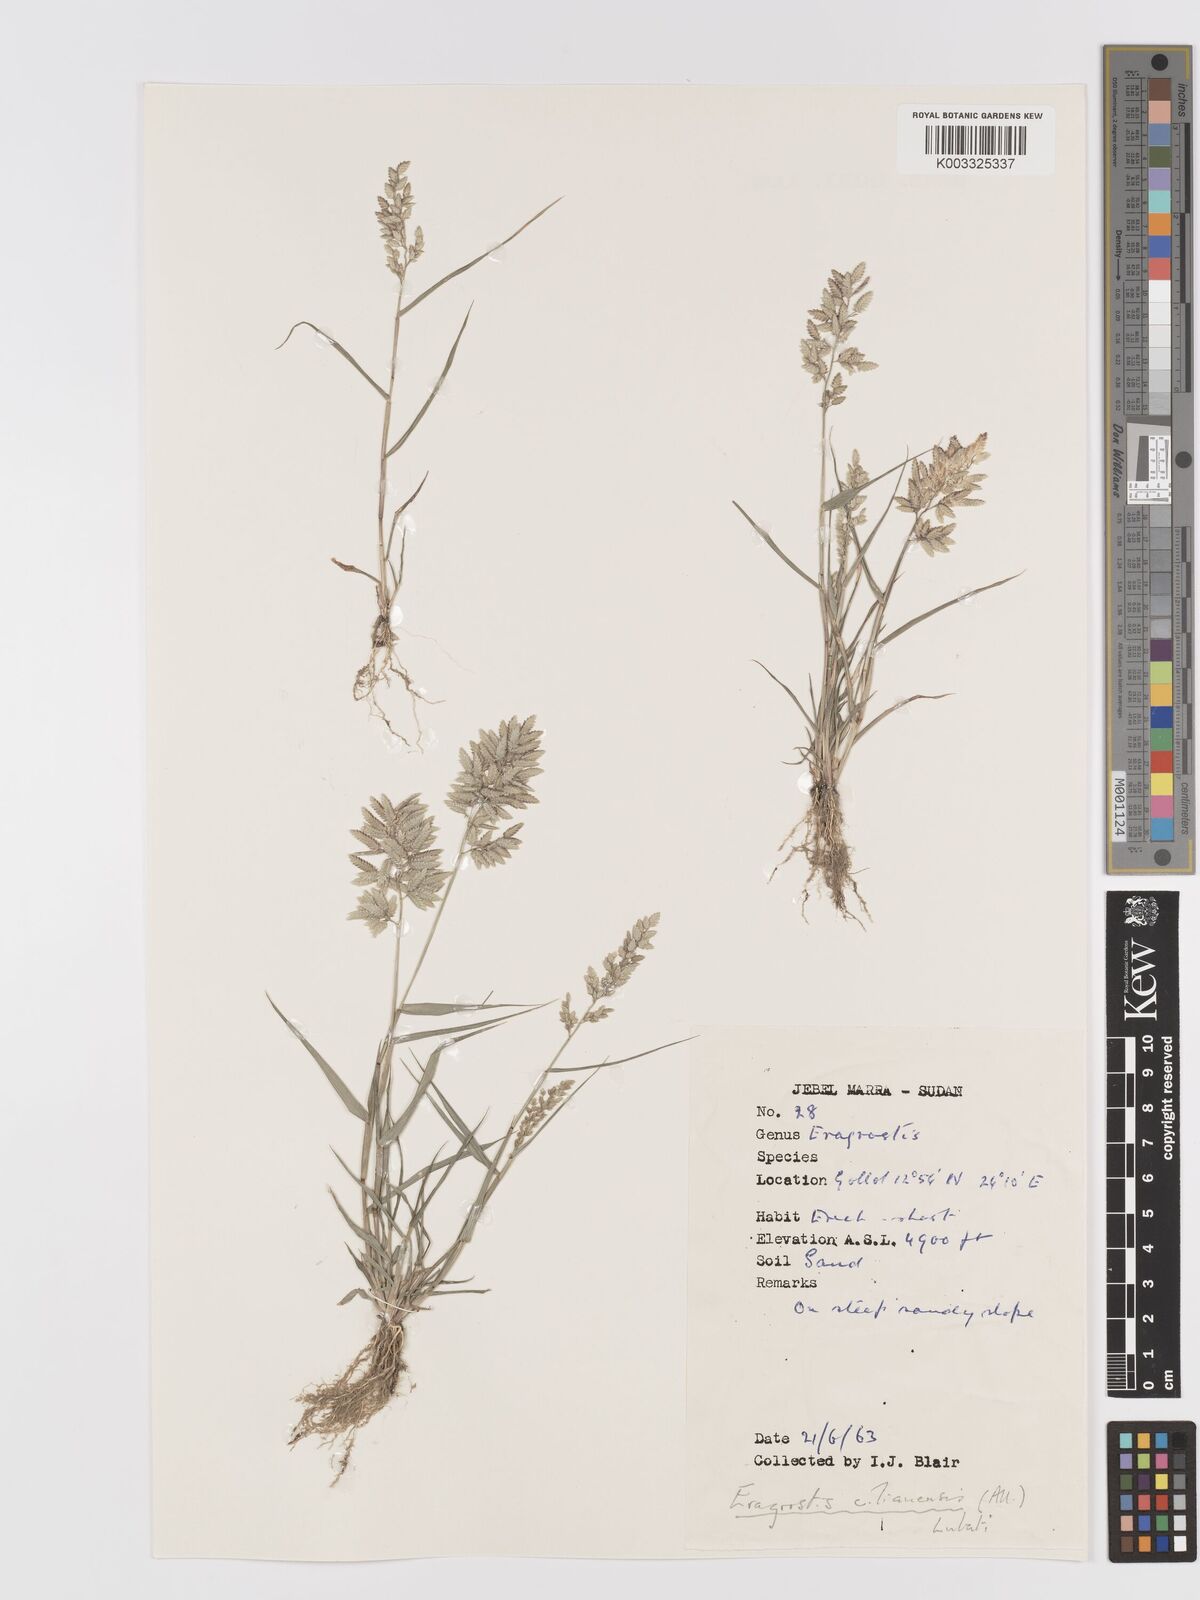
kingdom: Plantae
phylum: Tracheophyta
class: Liliopsida
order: Poales
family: Poaceae
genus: Eragrostis
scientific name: Eragrostis cilianensis
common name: Stinkgrass
